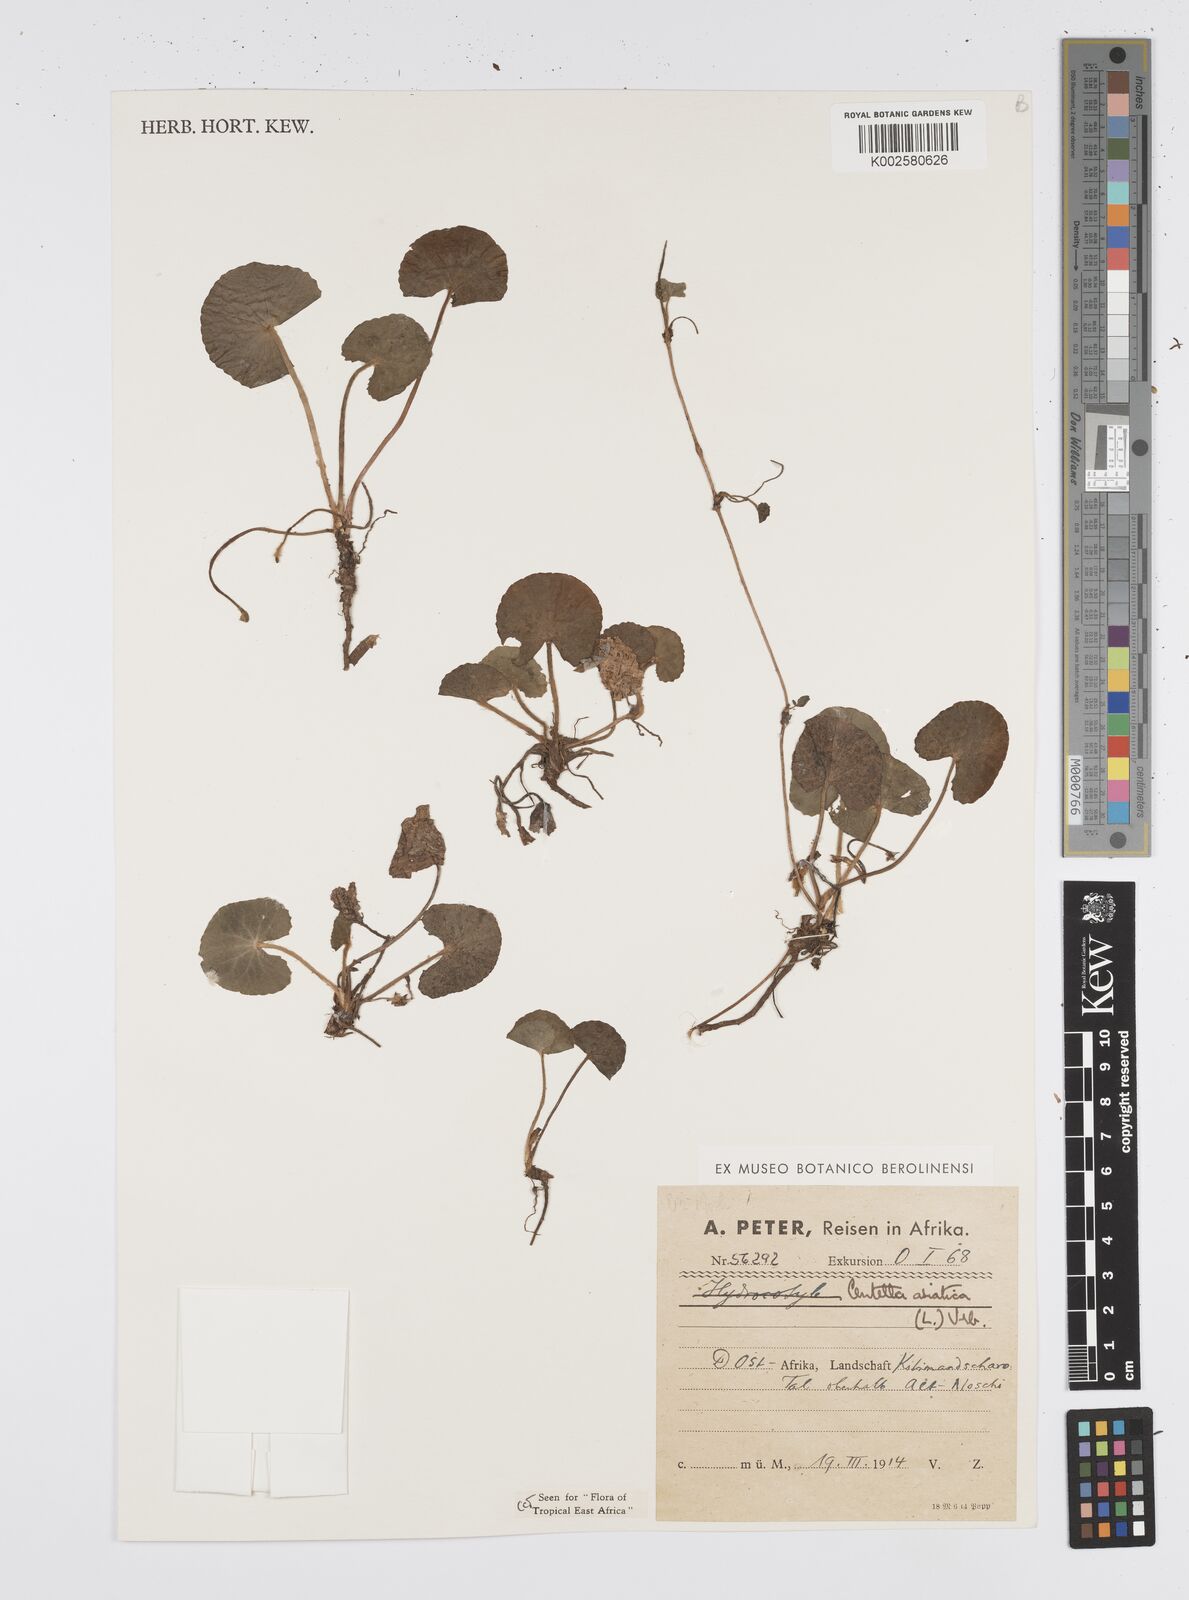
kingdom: Plantae
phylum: Tracheophyta
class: Magnoliopsida
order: Apiales
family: Apiaceae
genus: Centella
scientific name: Centella asiatica
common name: Spadeleaf
